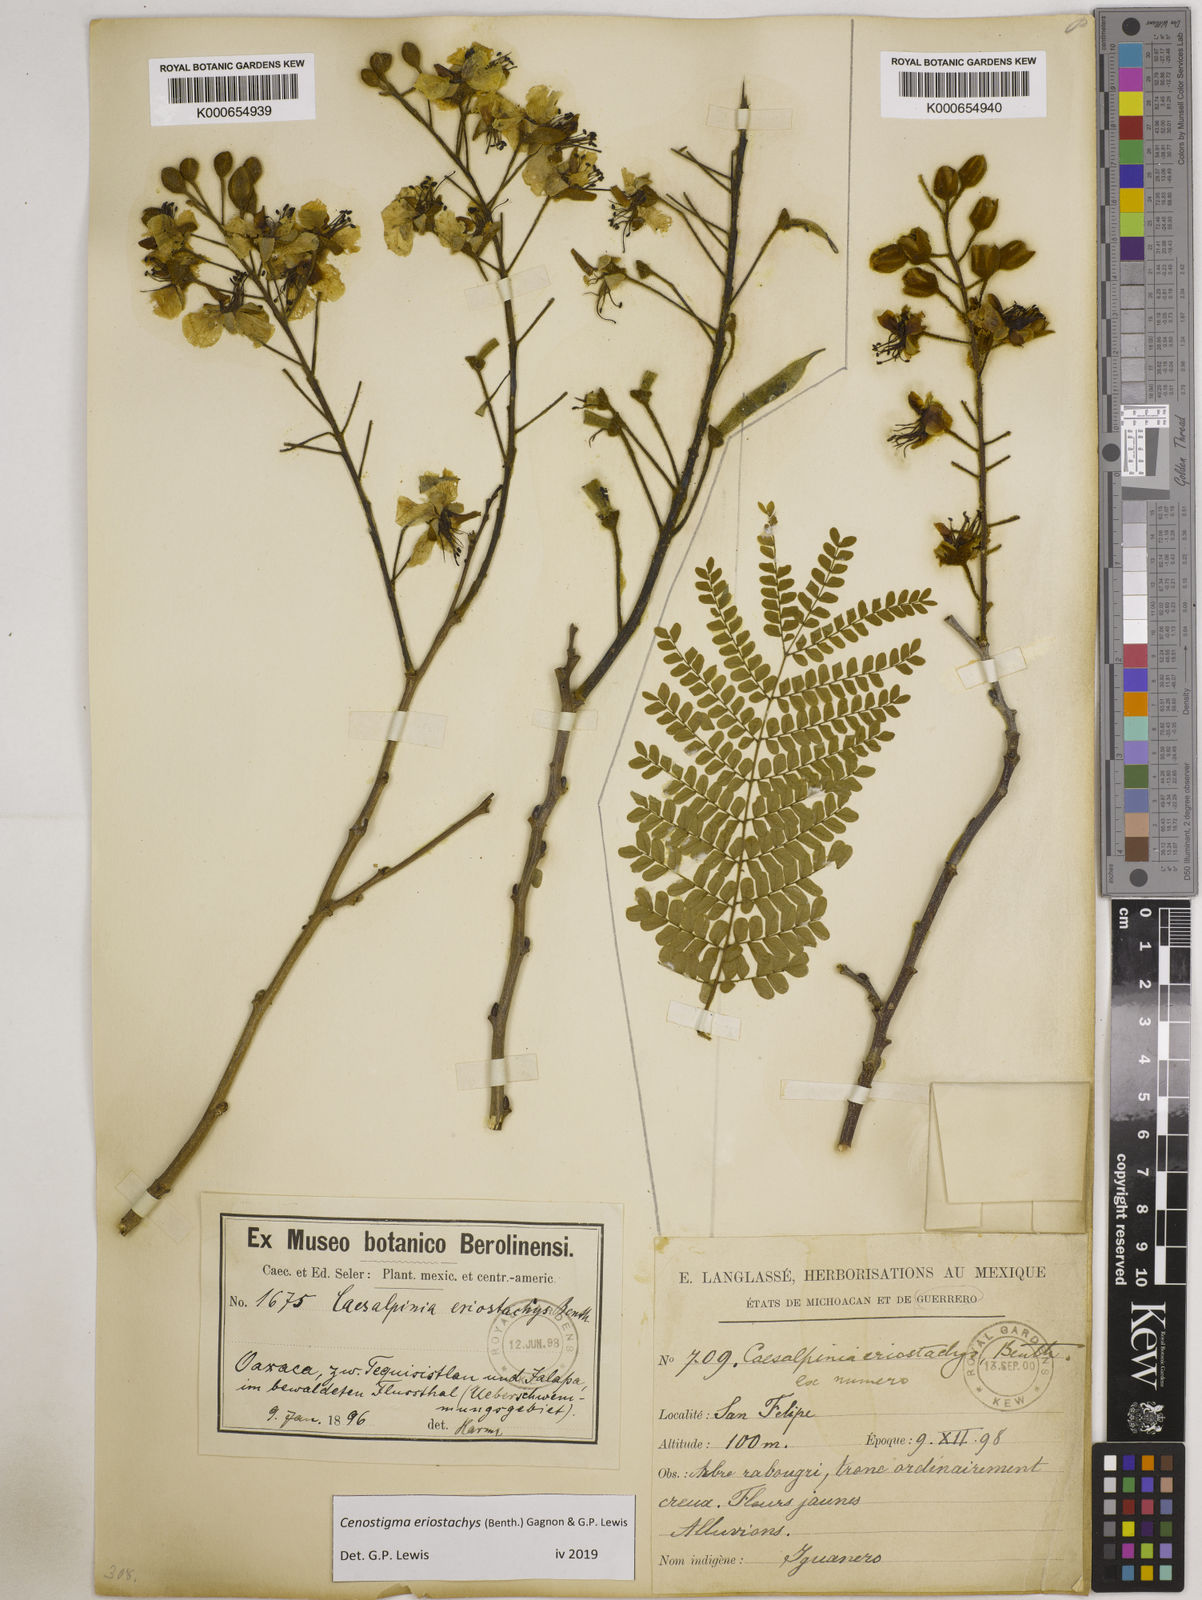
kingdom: Plantae
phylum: Tracheophyta
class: Magnoliopsida
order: Fabales
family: Fabaceae
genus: Cenostigma
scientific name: Cenostigma eriostachys
